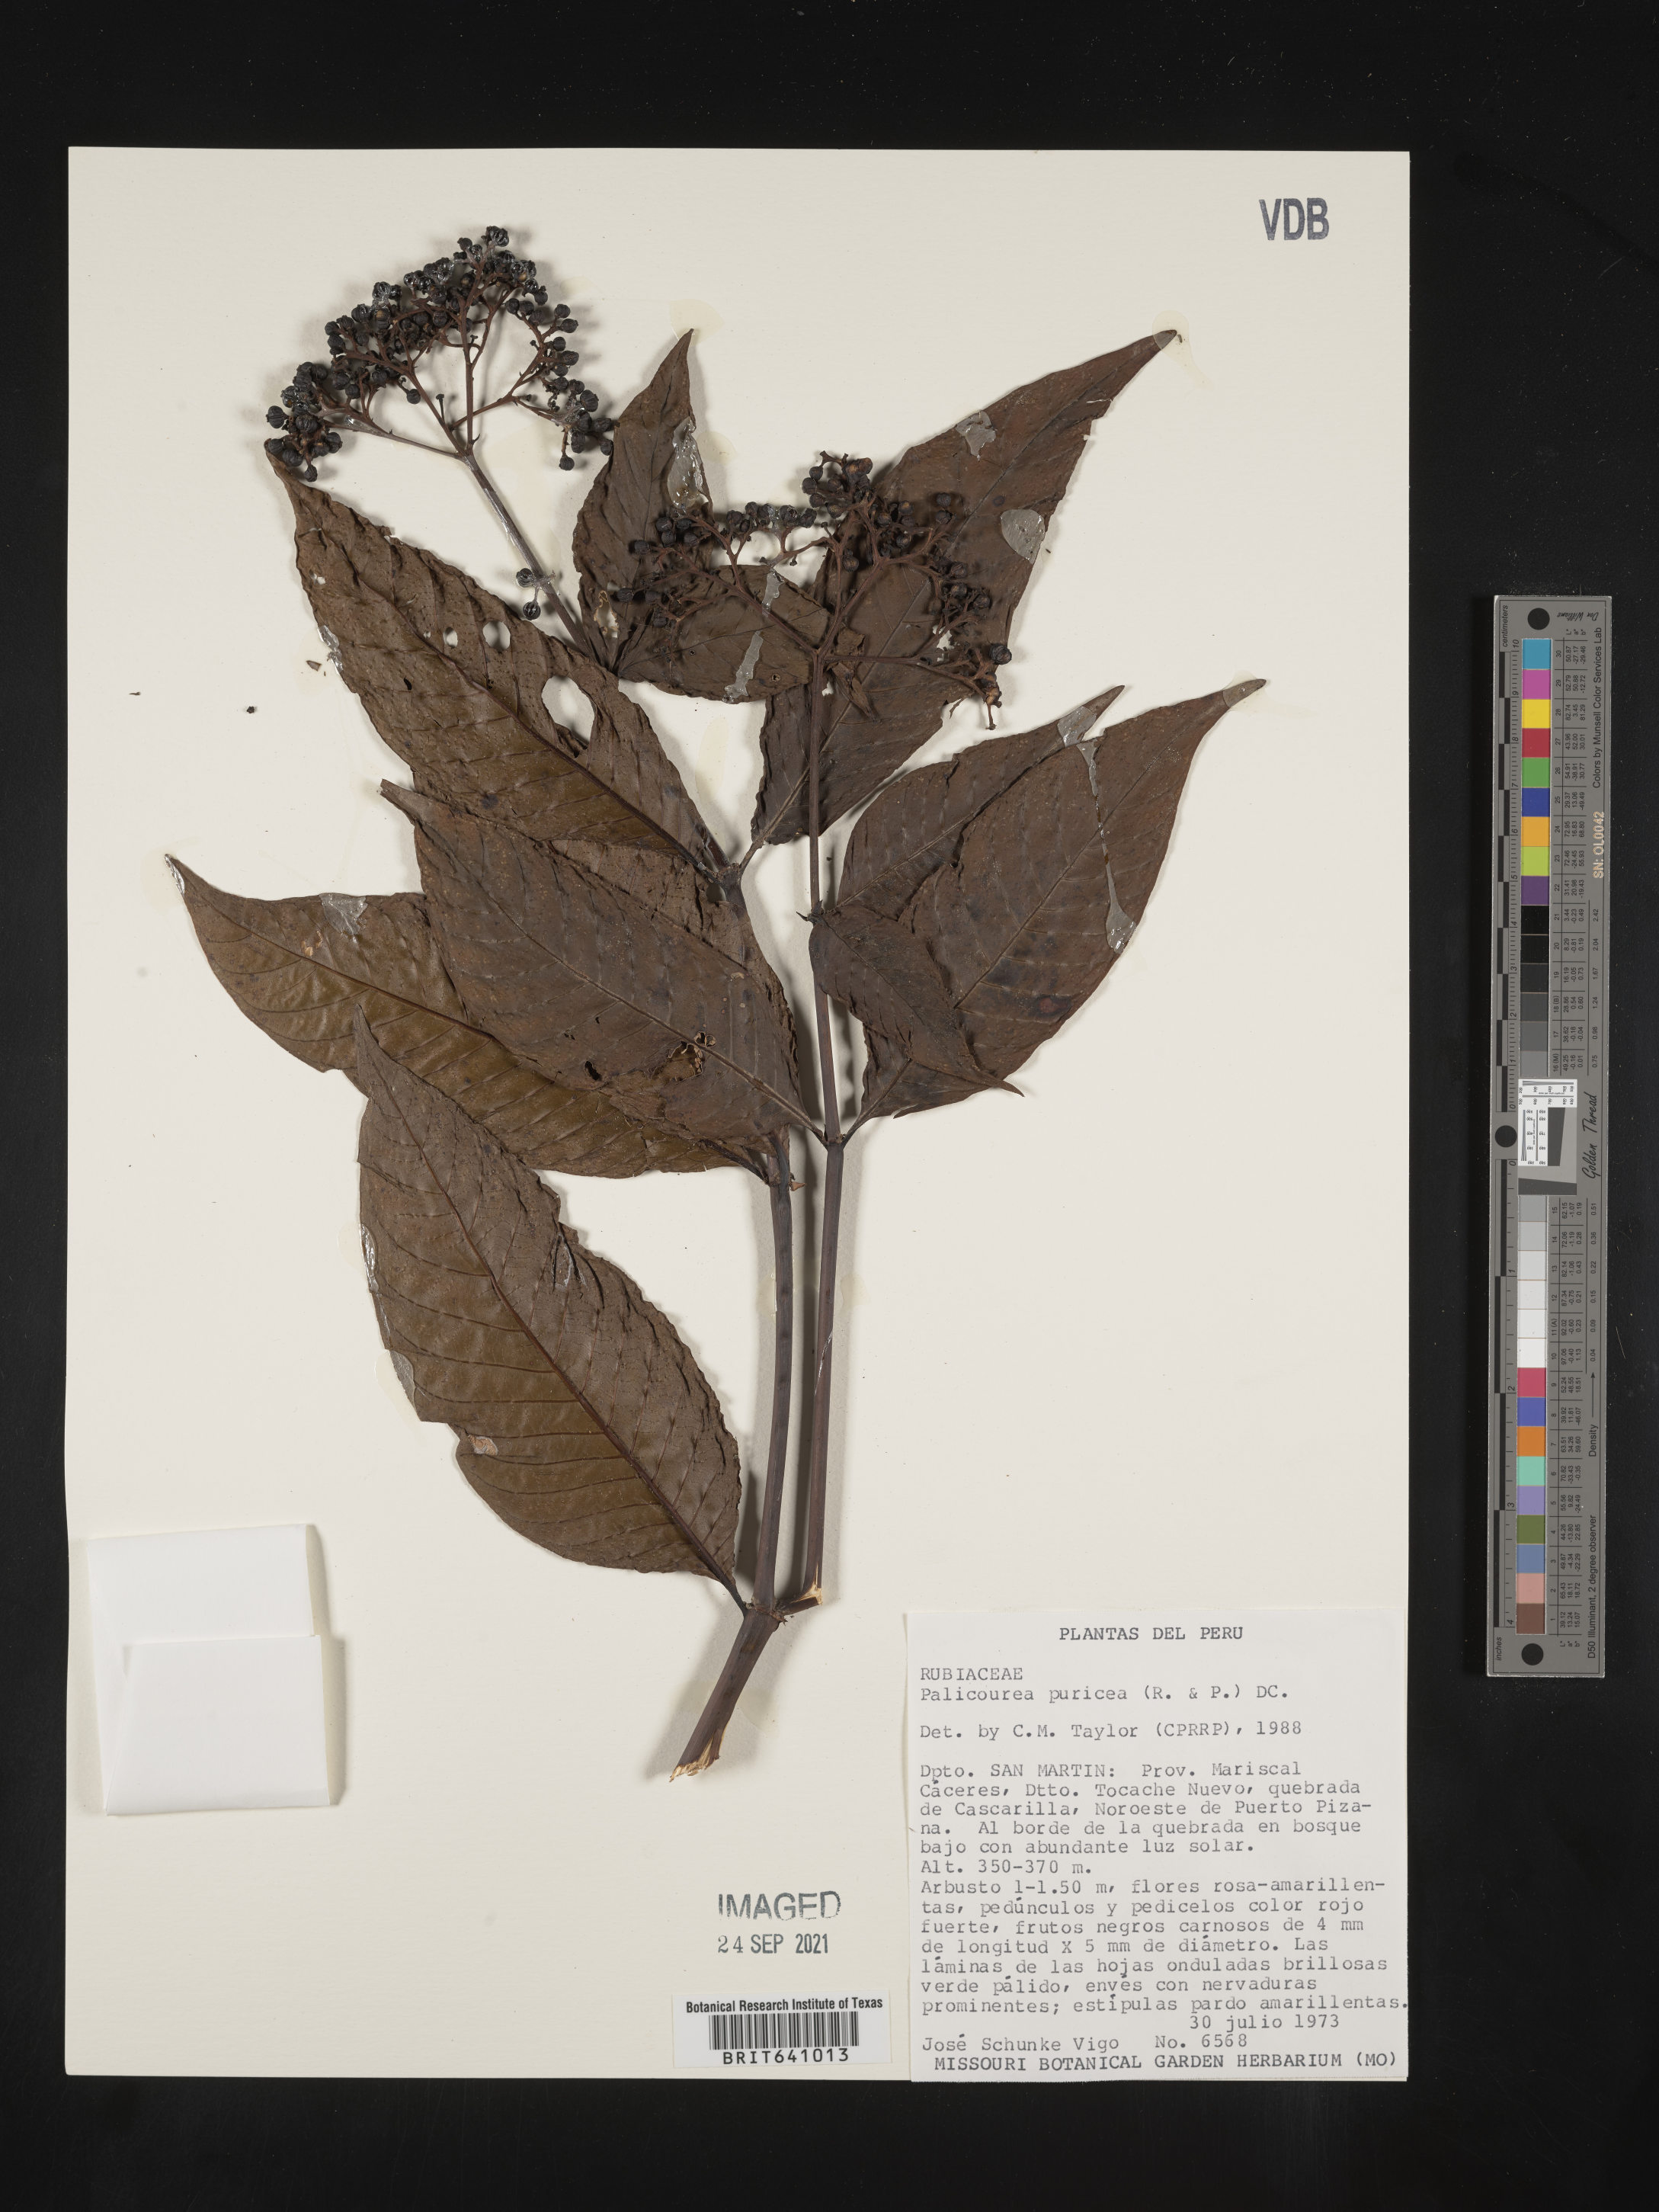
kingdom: Plantae
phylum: Tracheophyta
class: Magnoliopsida
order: Gentianales
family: Rubiaceae
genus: Palicourea
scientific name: Palicourea
